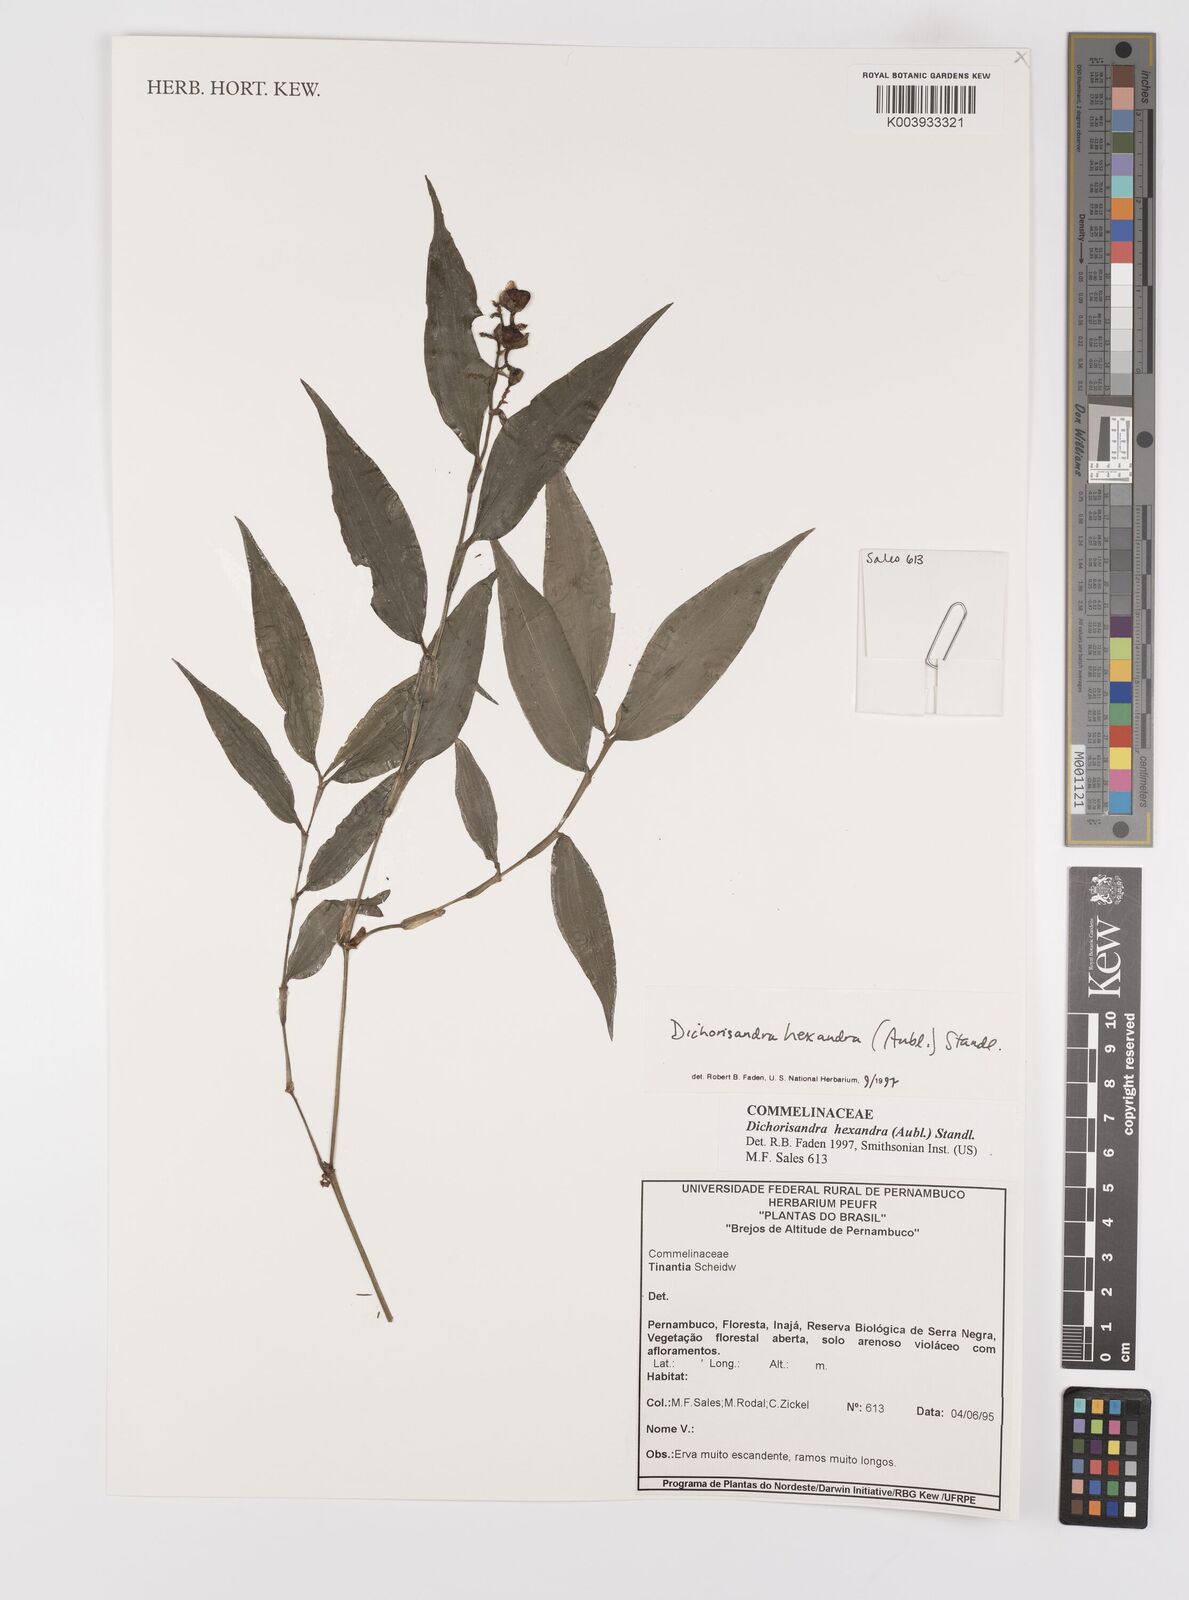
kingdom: Plantae
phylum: Tracheophyta
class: Liliopsida
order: Commelinales
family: Commelinaceae
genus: Dichorisandra
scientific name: Dichorisandra hexandra
